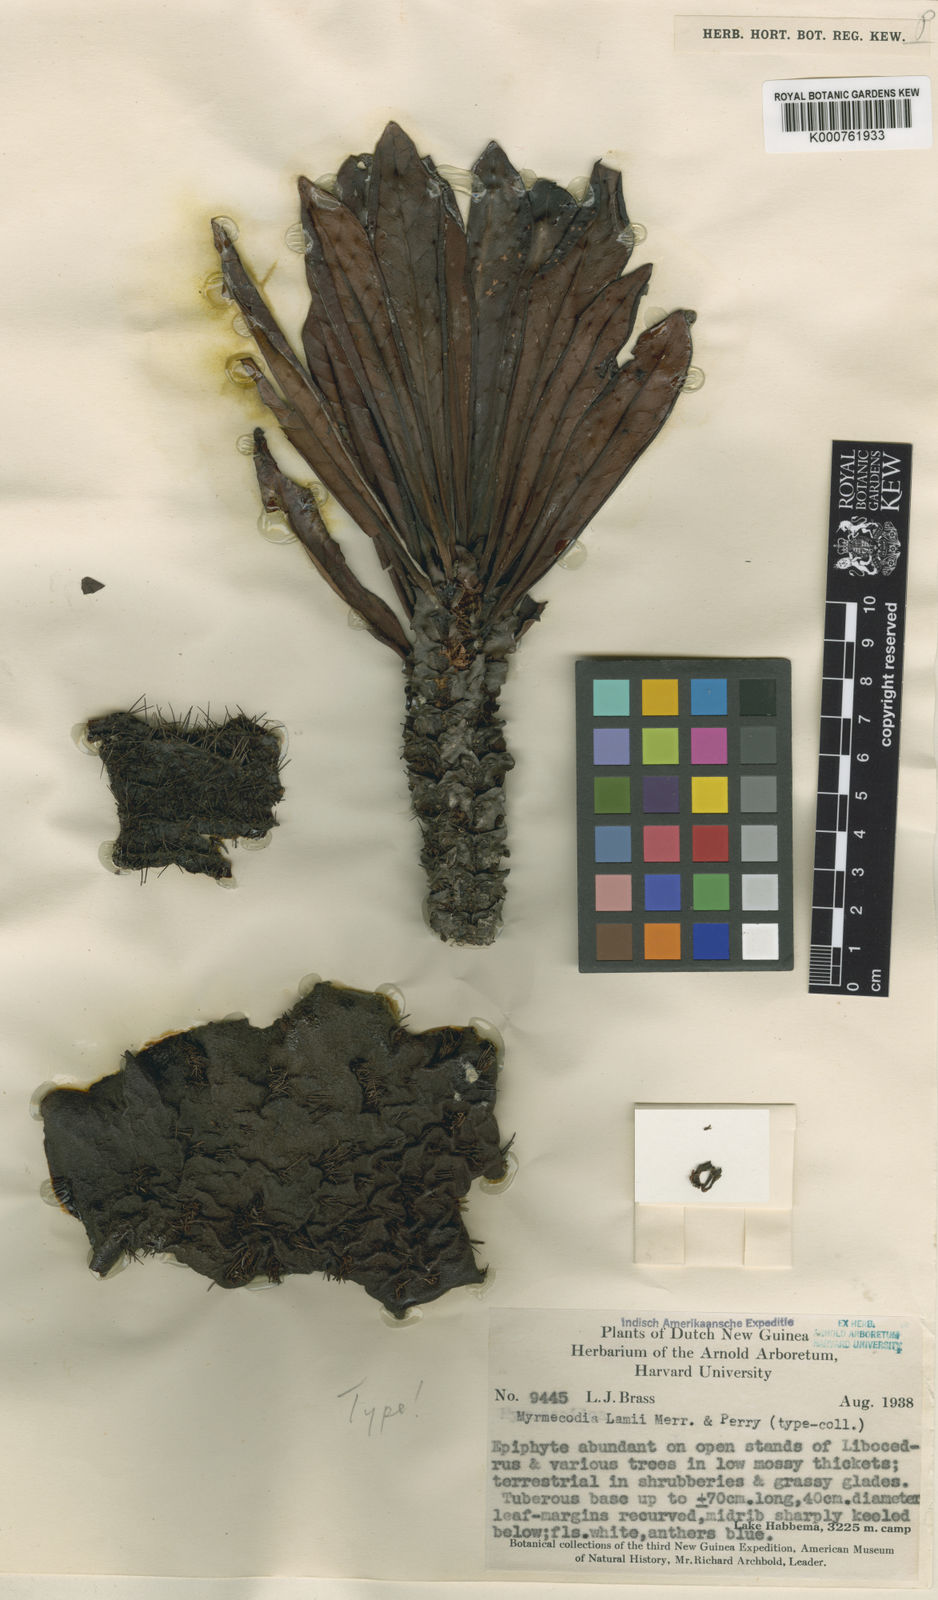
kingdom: Plantae
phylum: Tracheophyta
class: Magnoliopsida
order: Gentianales
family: Rubiaceae
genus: Myrmecodia
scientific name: Myrmecodia lamii
